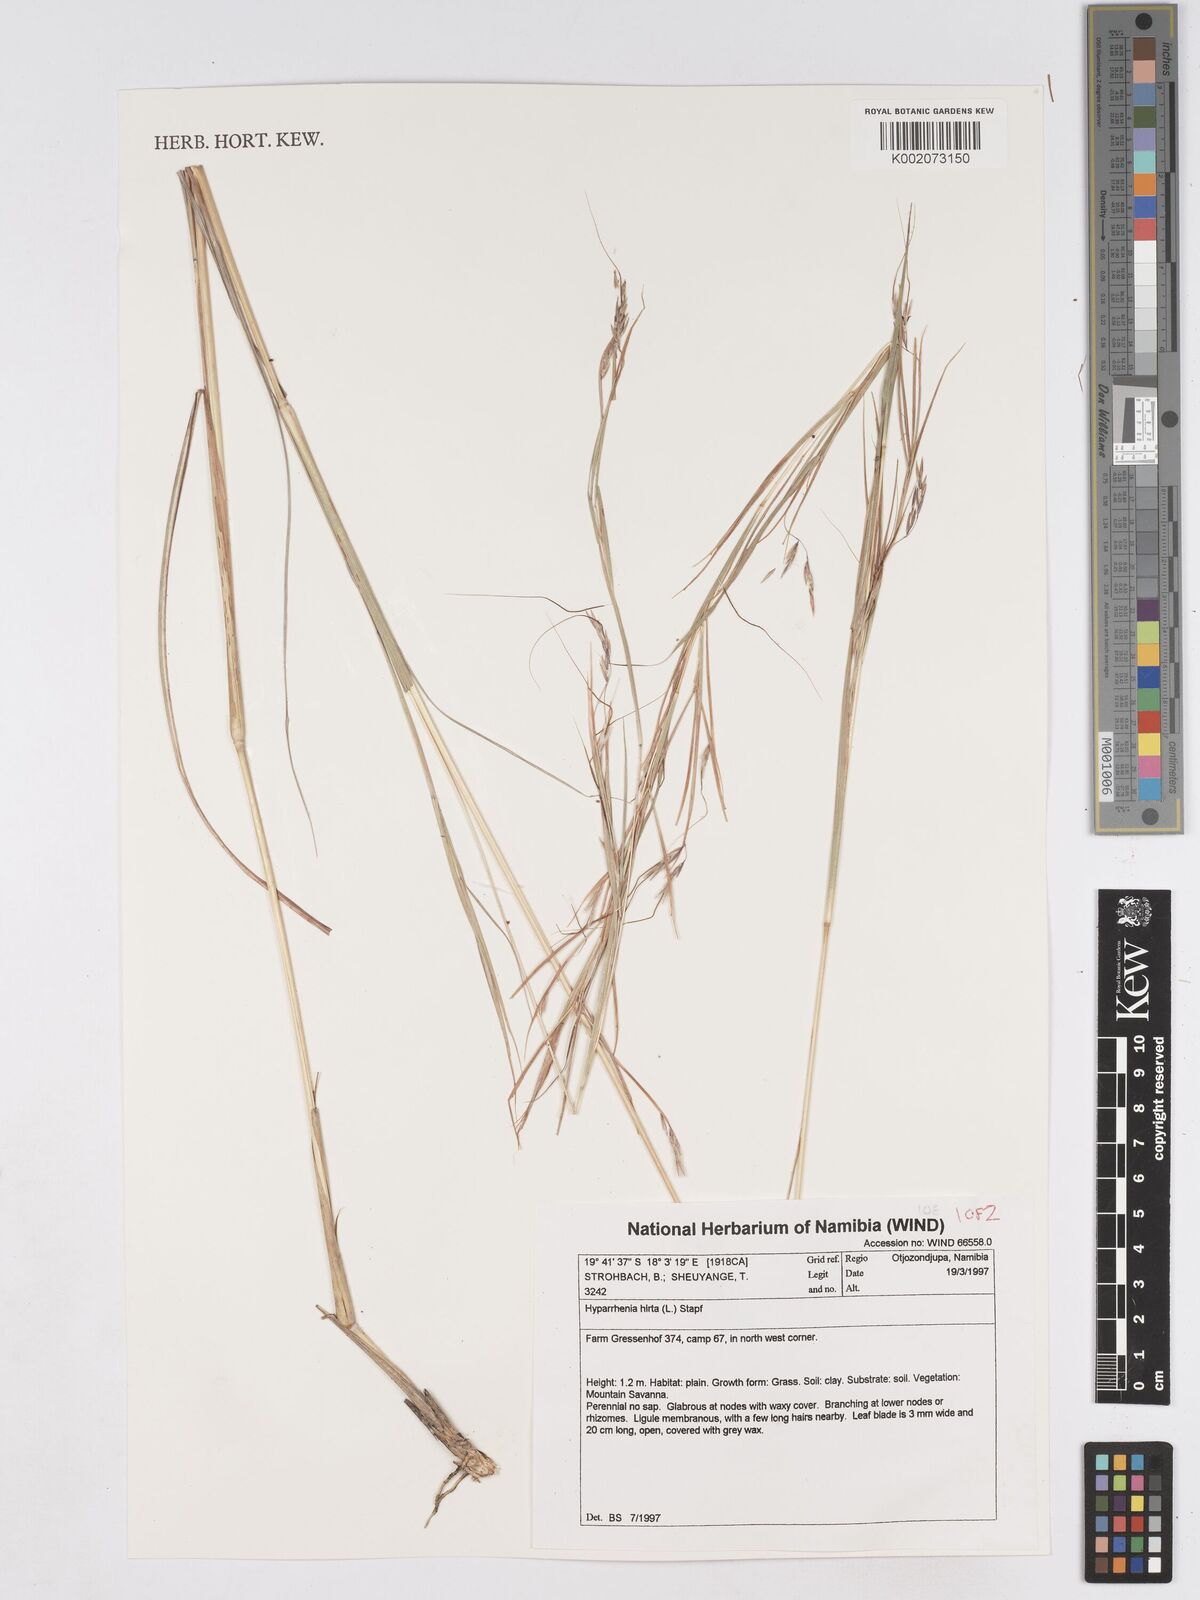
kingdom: Plantae
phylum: Tracheophyta
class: Liliopsida
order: Poales
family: Poaceae
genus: Hyparrhenia
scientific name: Hyparrhenia hirta
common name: Thatching grass
